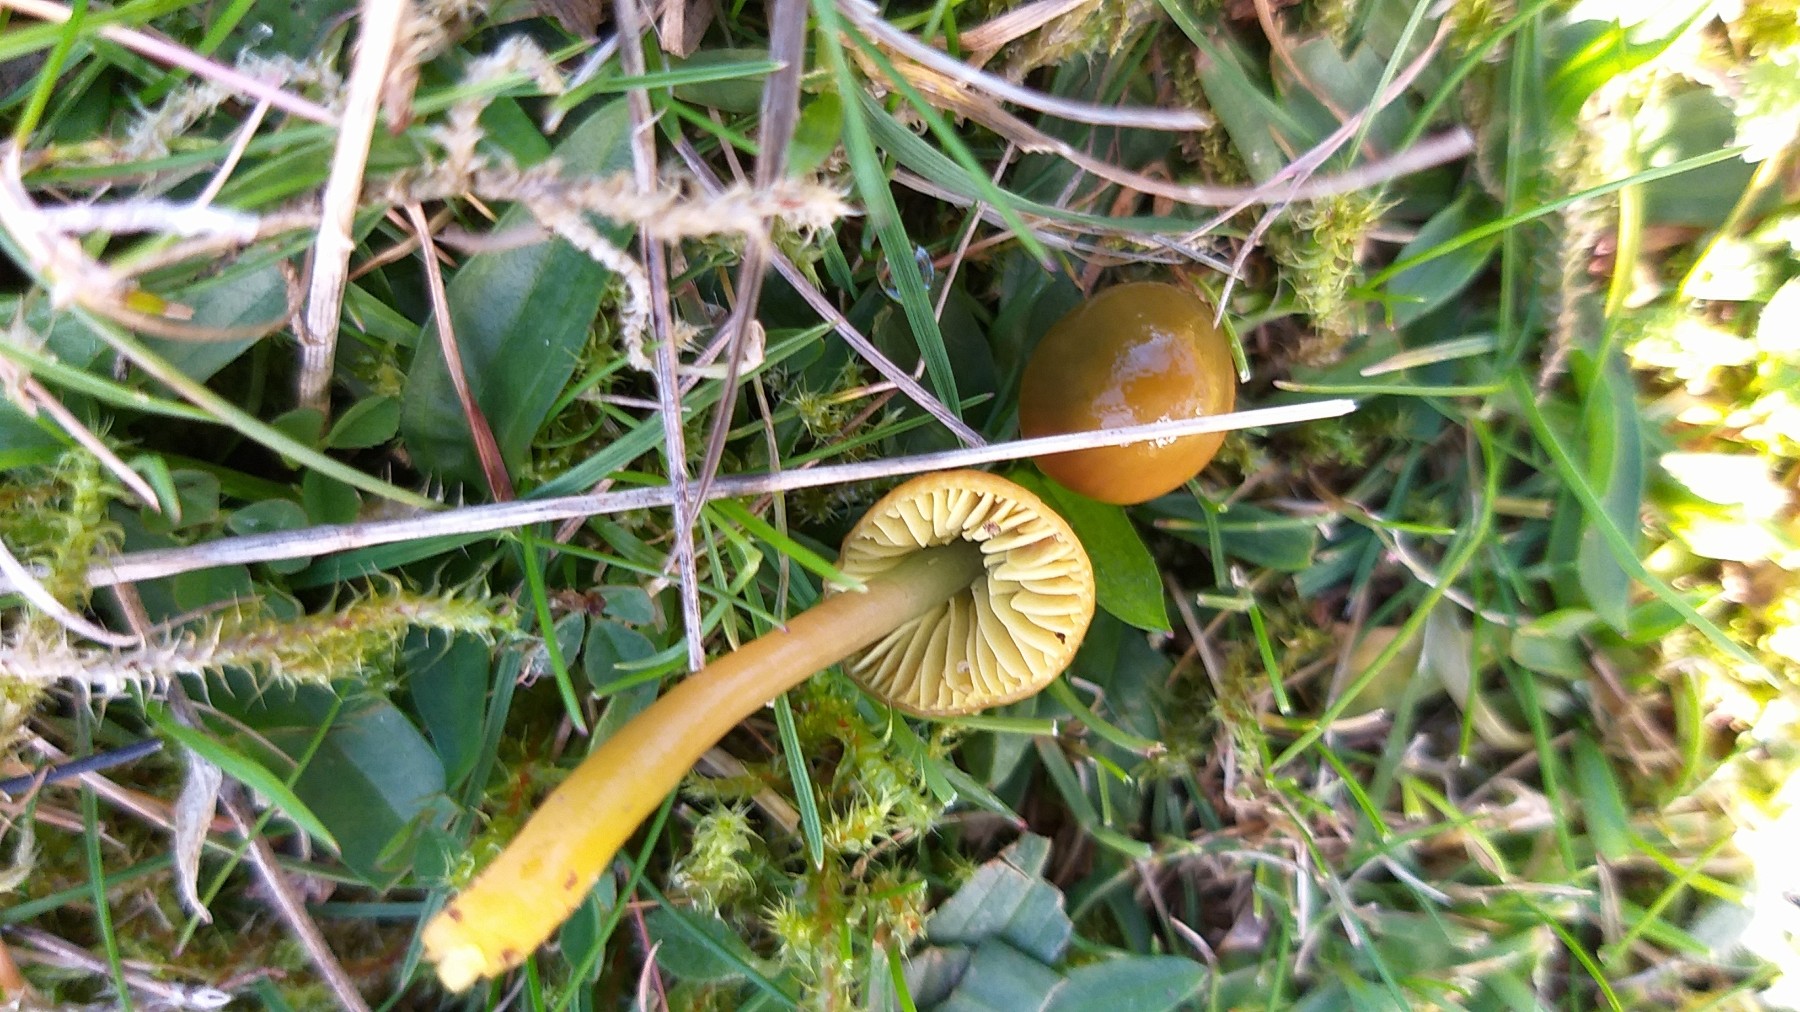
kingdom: Fungi
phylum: Basidiomycota
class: Agaricomycetes
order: Agaricales
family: Hygrophoraceae
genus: Gliophorus
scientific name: Gliophorus psittacinus
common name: papegøje-vokshat
